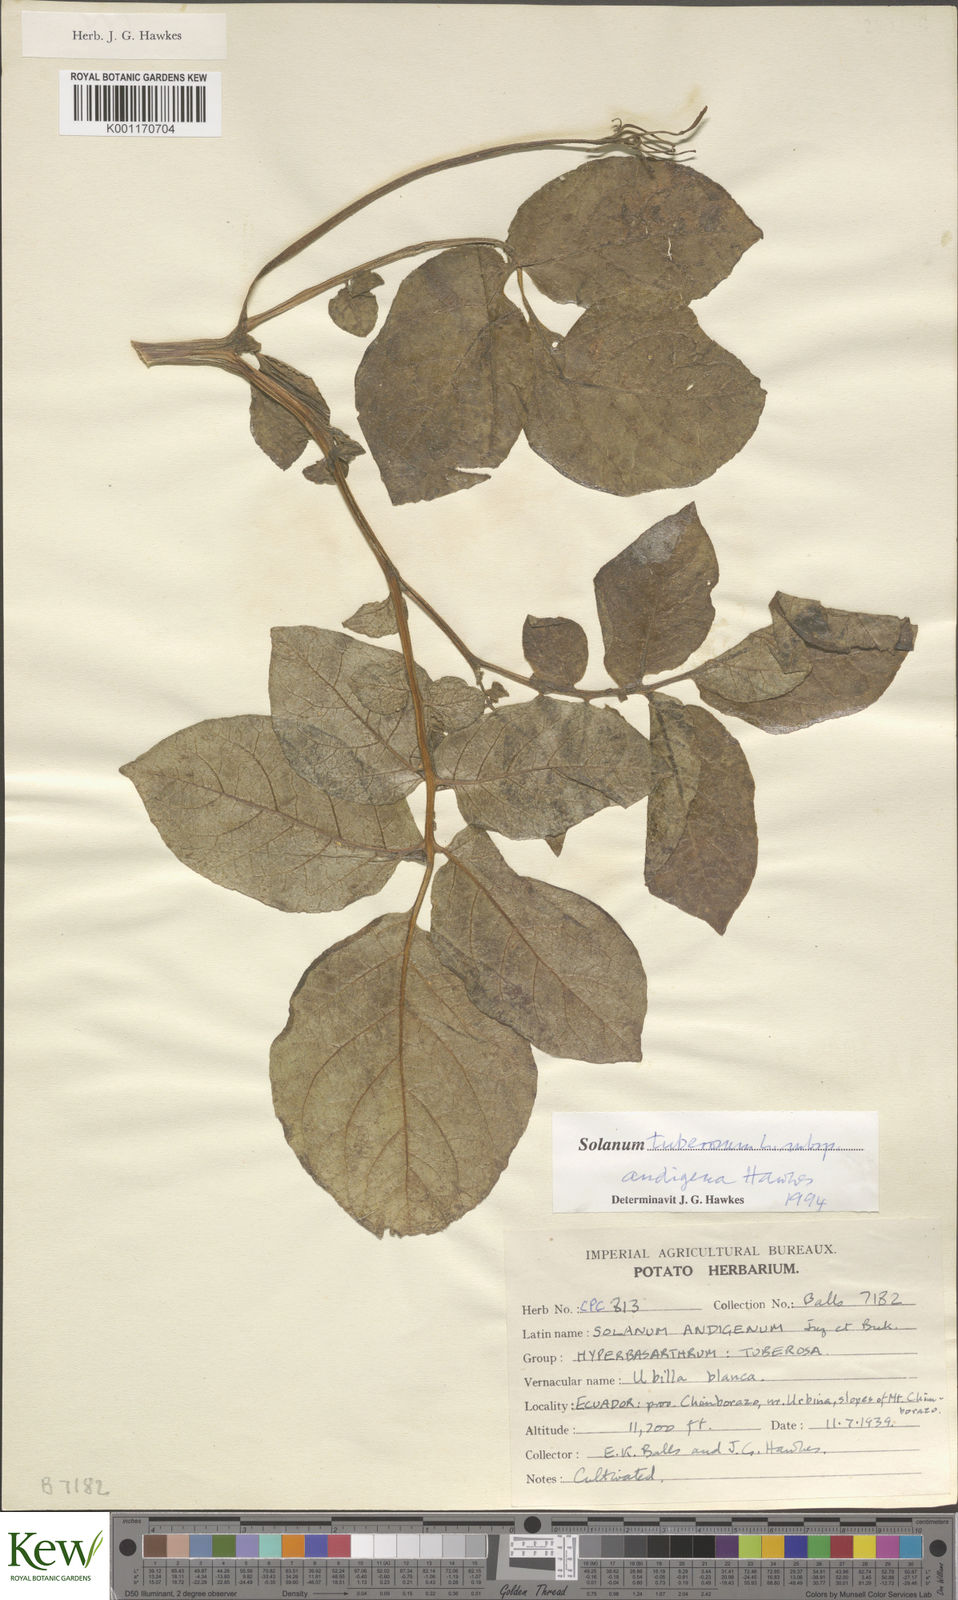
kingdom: Plantae
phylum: Tracheophyta
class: Magnoliopsida
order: Solanales
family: Solanaceae
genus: Solanum
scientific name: Solanum tuberosum
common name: Potato
